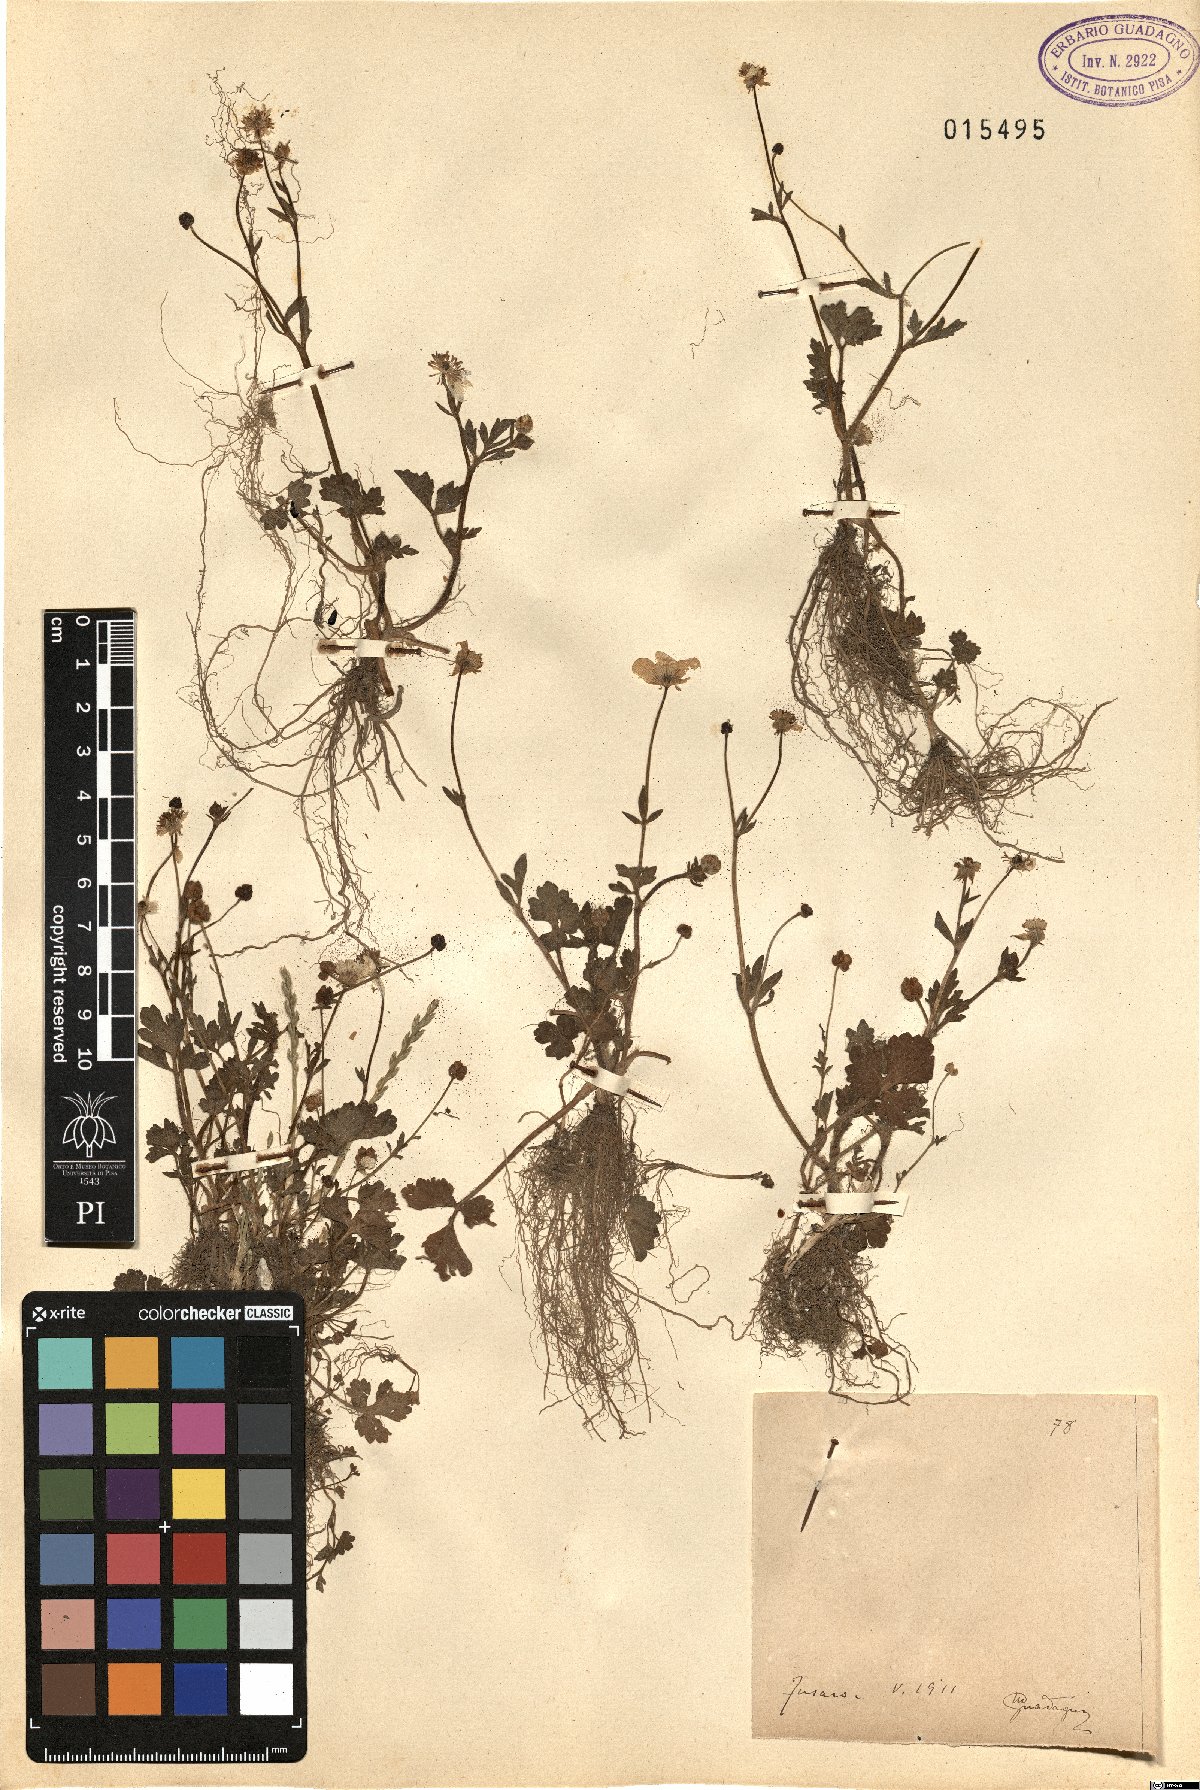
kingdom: Plantae
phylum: Tracheophyta
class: Magnoliopsida
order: Ranunculales
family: Ranunculaceae
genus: Ranunculus
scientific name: Ranunculus
